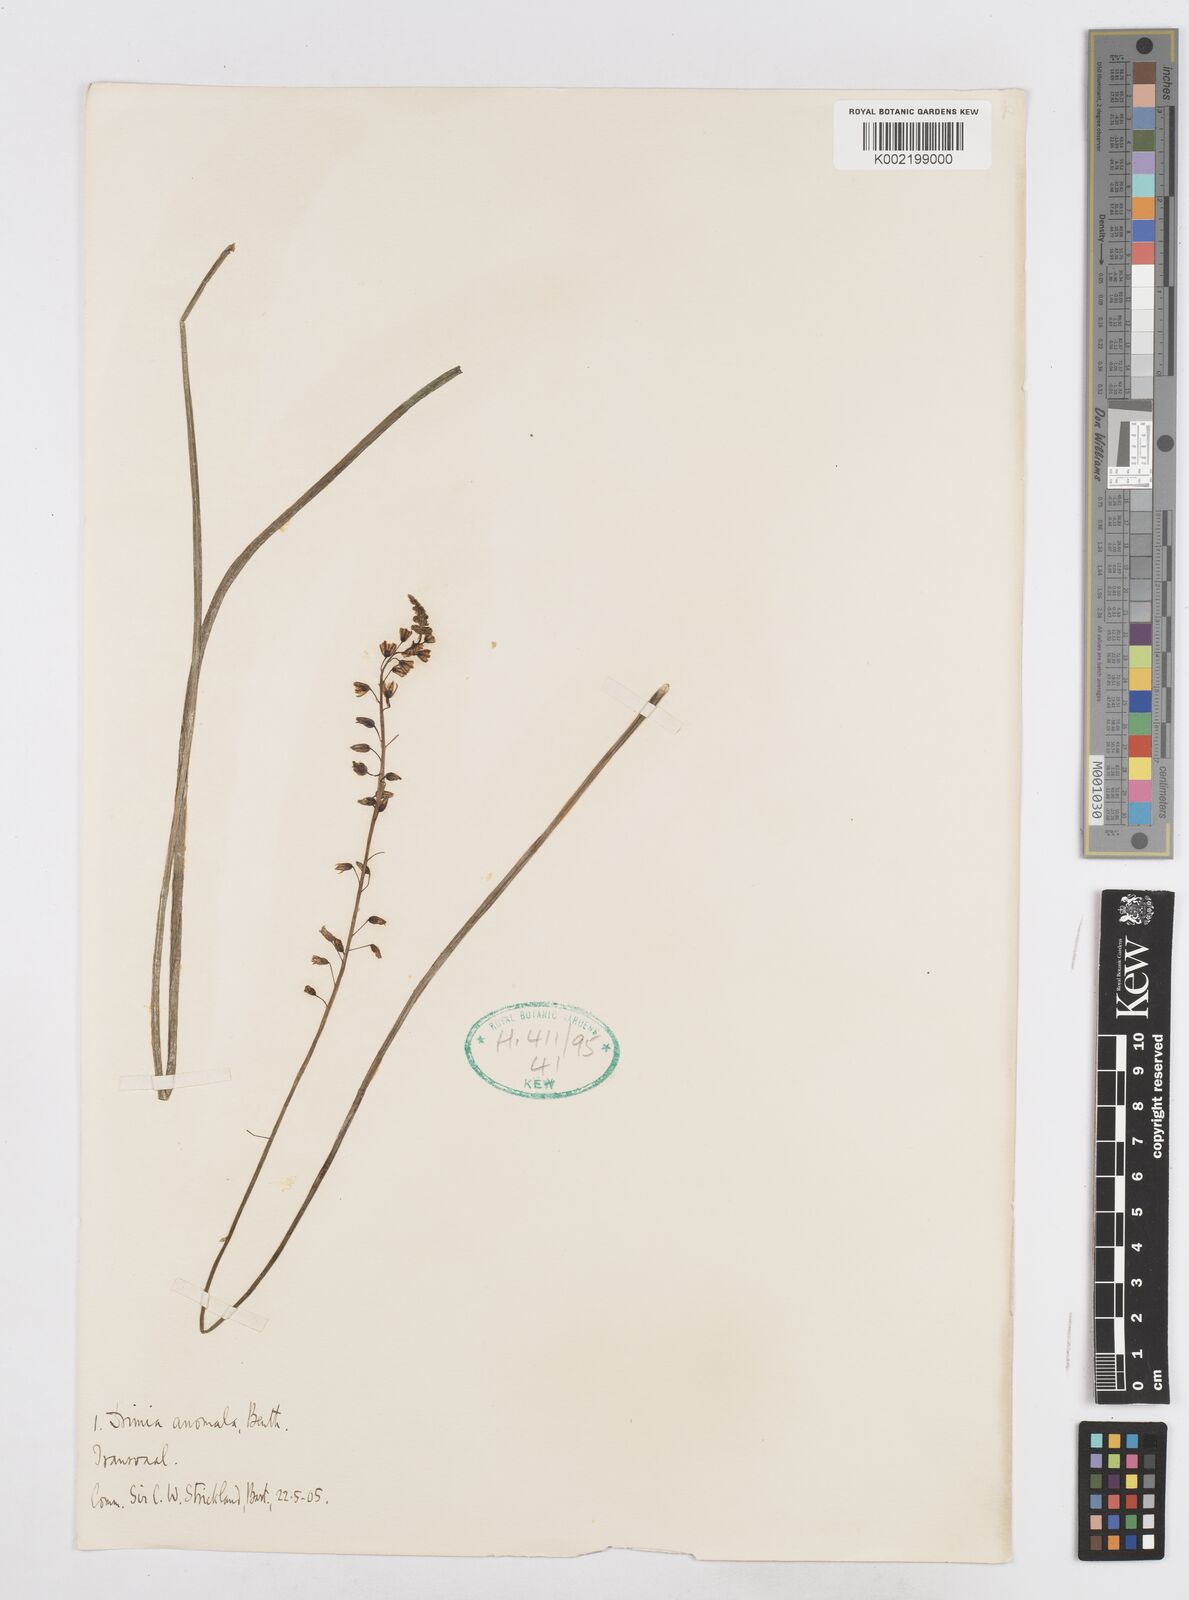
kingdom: Plantae
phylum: Tracheophyta
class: Liliopsida
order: Asparagales
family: Asparagaceae
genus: Drimia
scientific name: Drimia anomala
